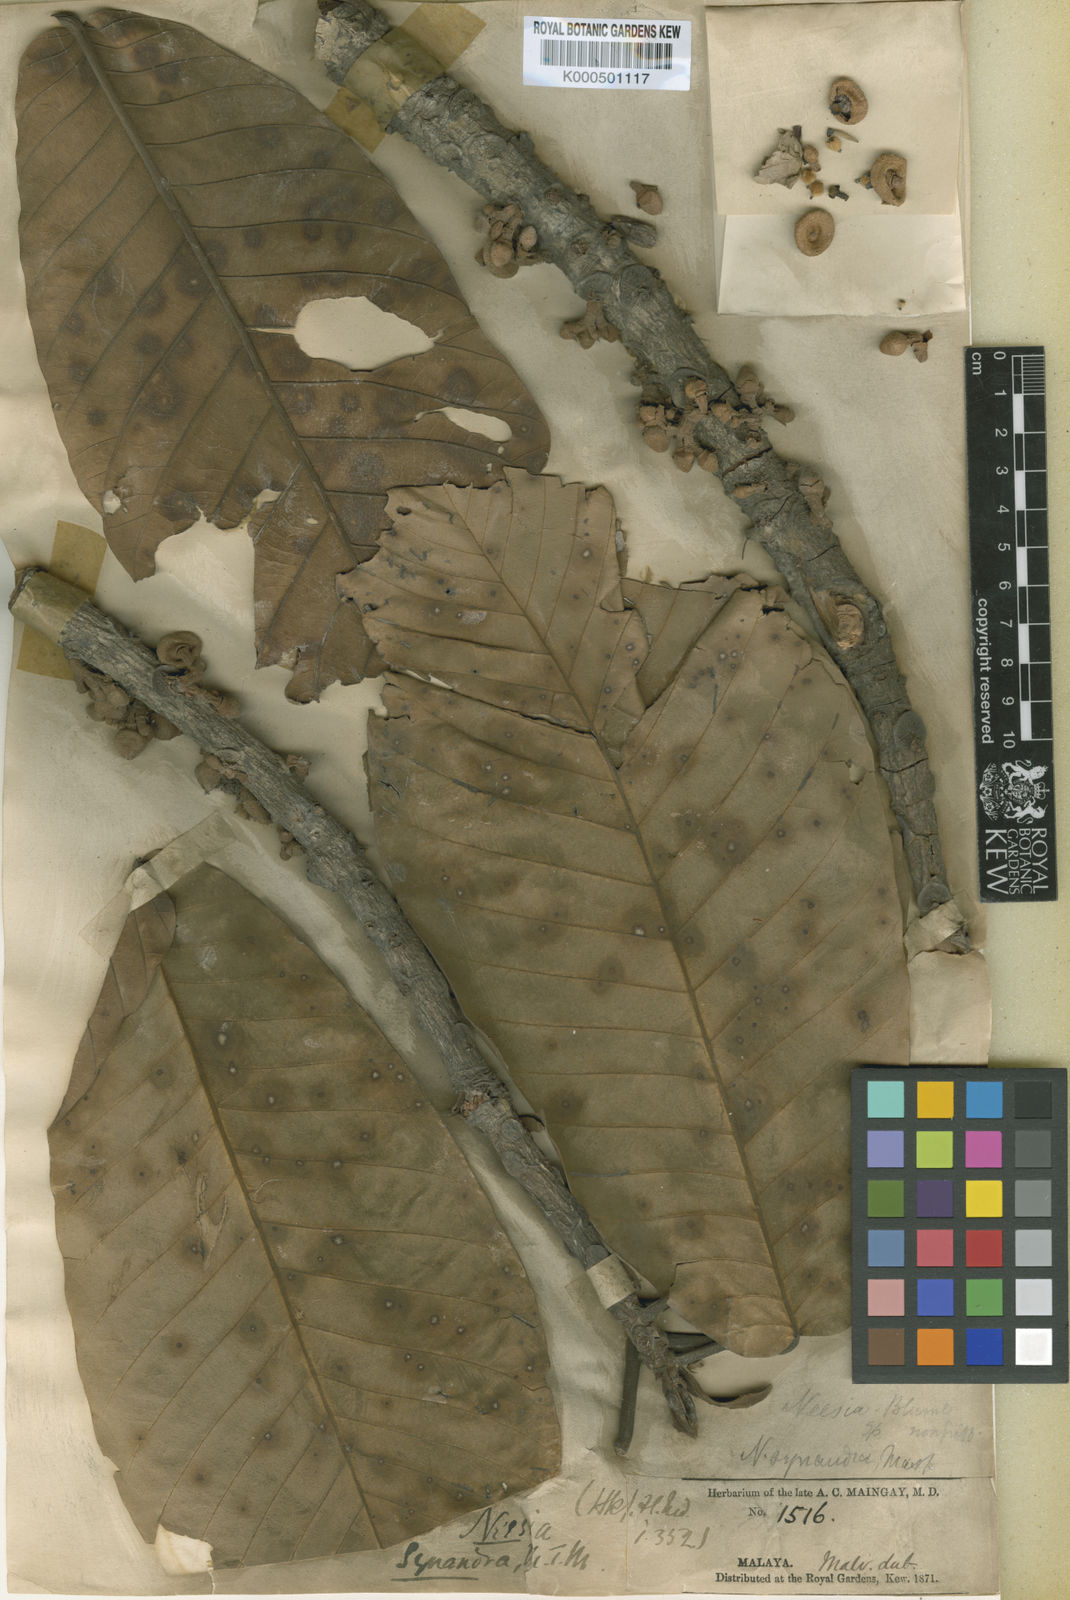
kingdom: Plantae
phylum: Tracheophyta
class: Magnoliopsida
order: Malvales
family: Malvaceae
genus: Neesia
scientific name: Neesia synandra
